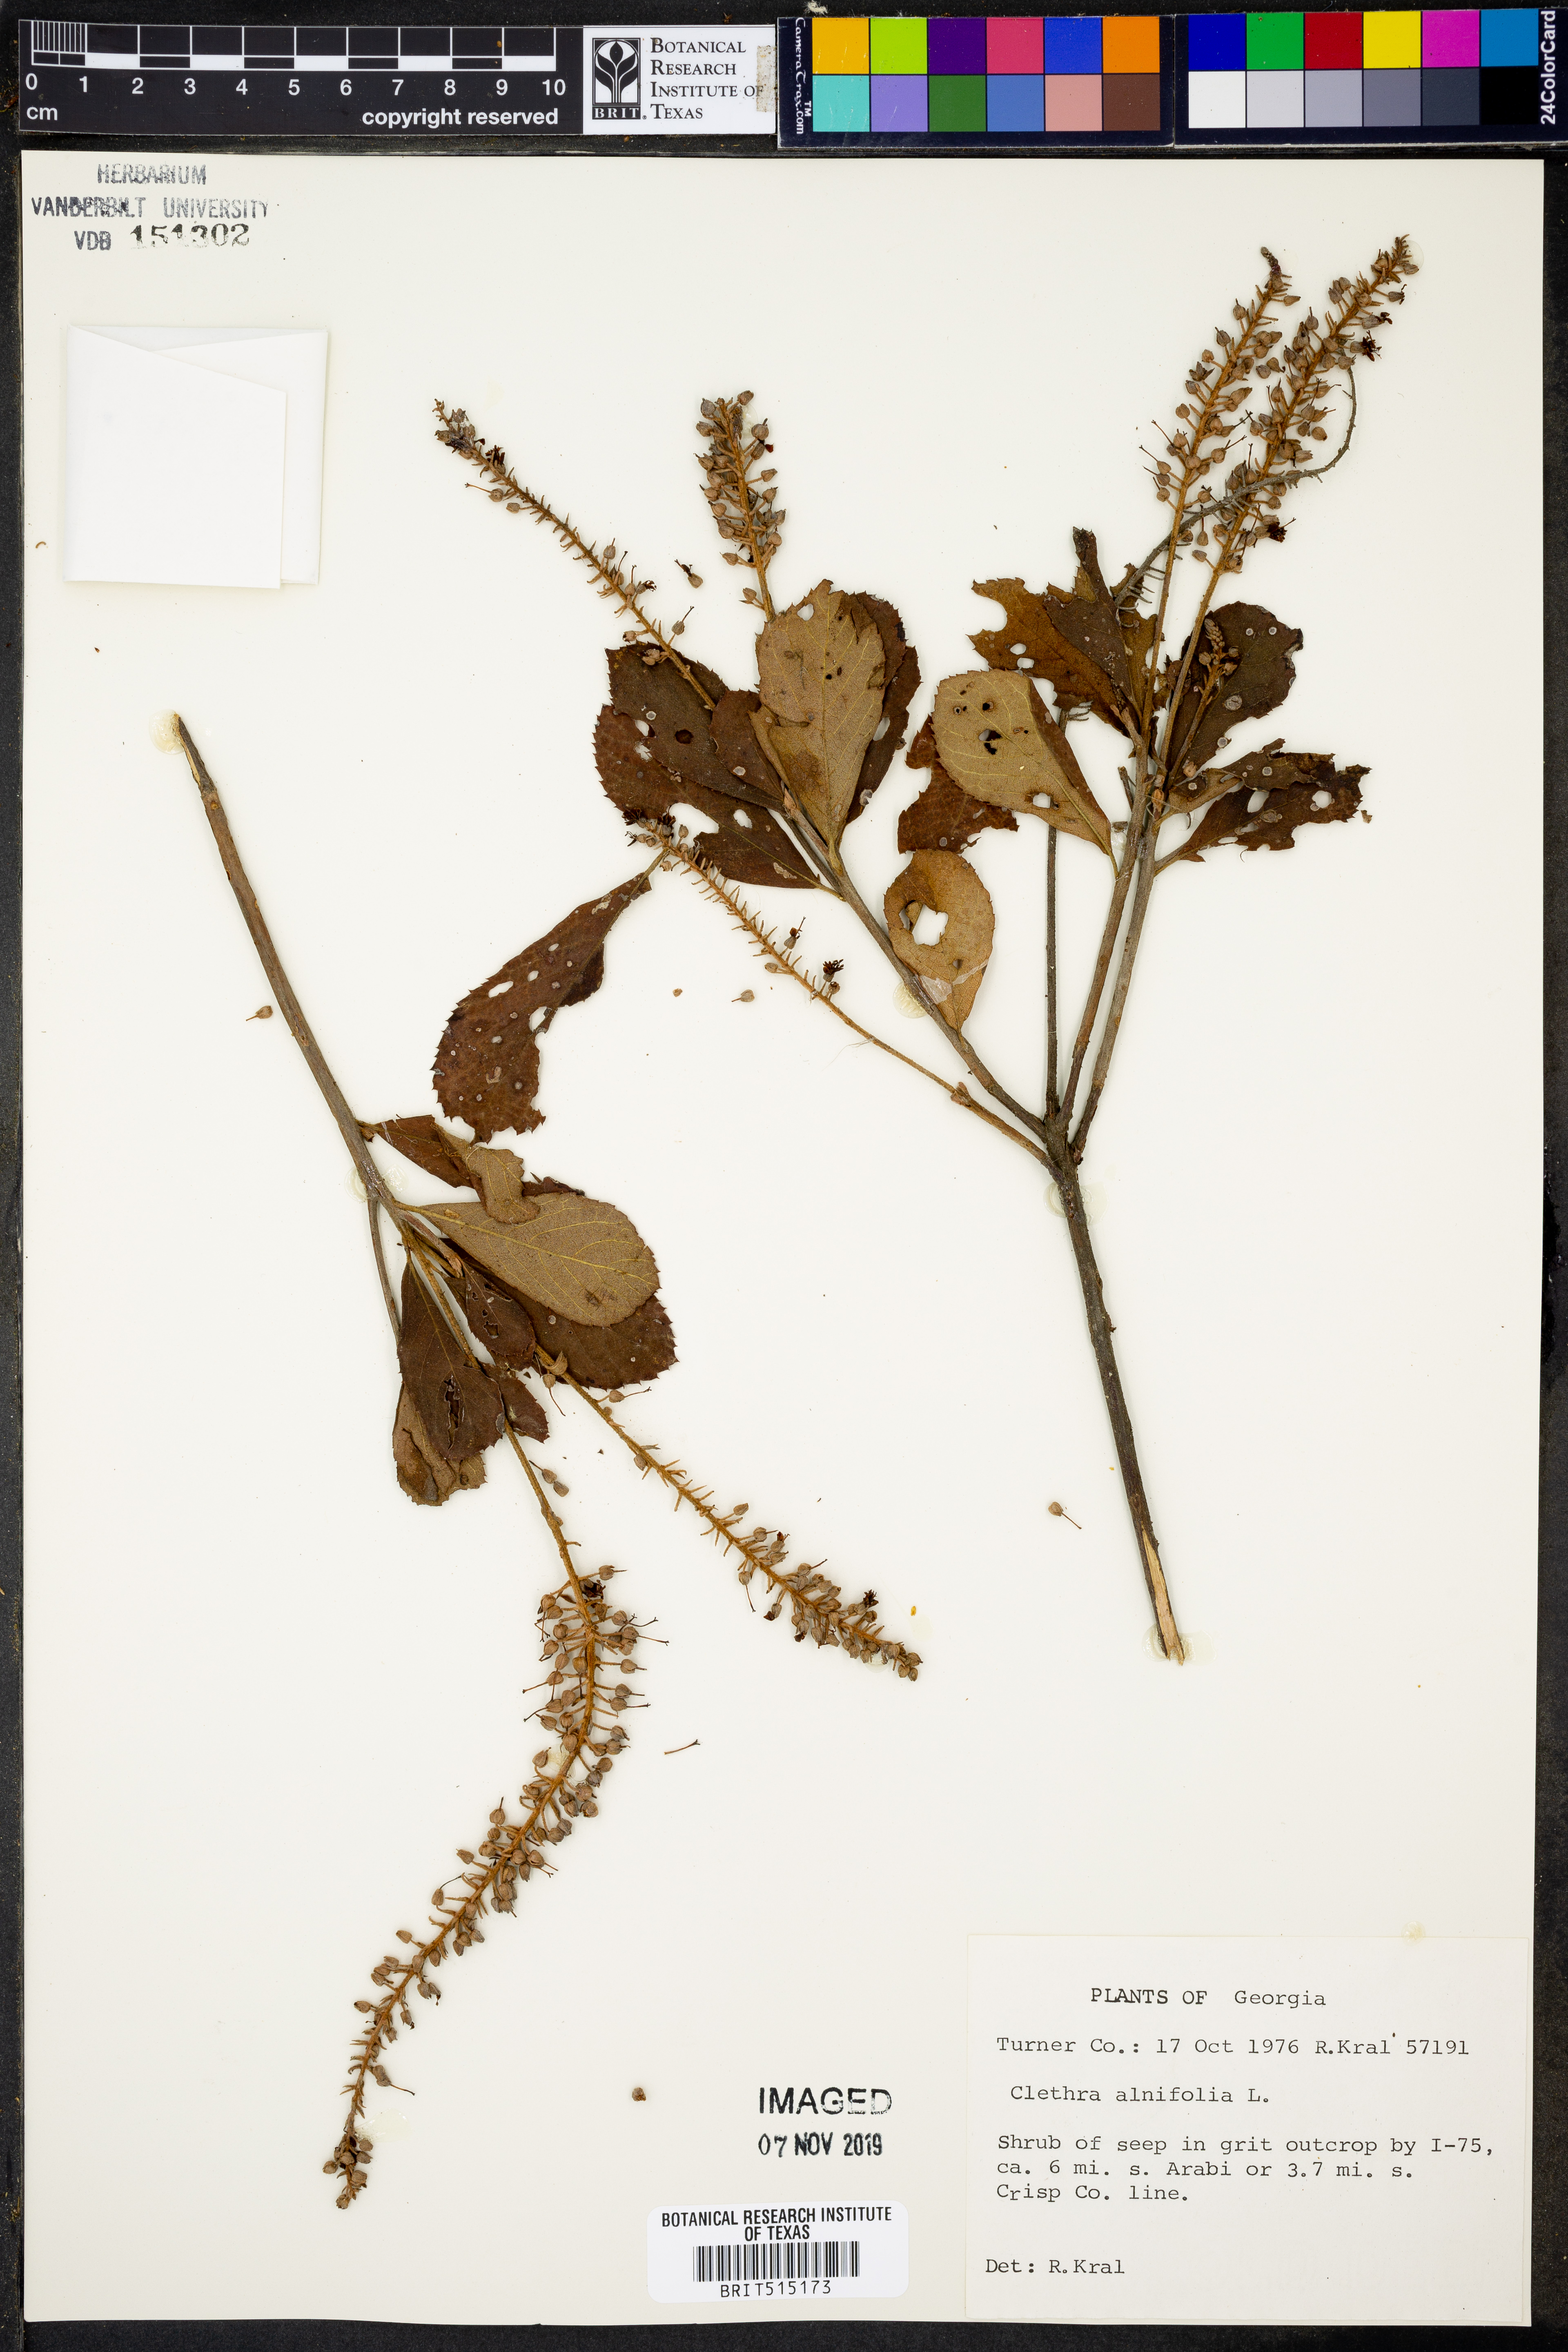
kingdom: Plantae
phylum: Tracheophyta
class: Magnoliopsida
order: Ericales
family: Clethraceae
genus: Clethra
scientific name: Clethra alnifolia
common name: Sweet pepperbush
